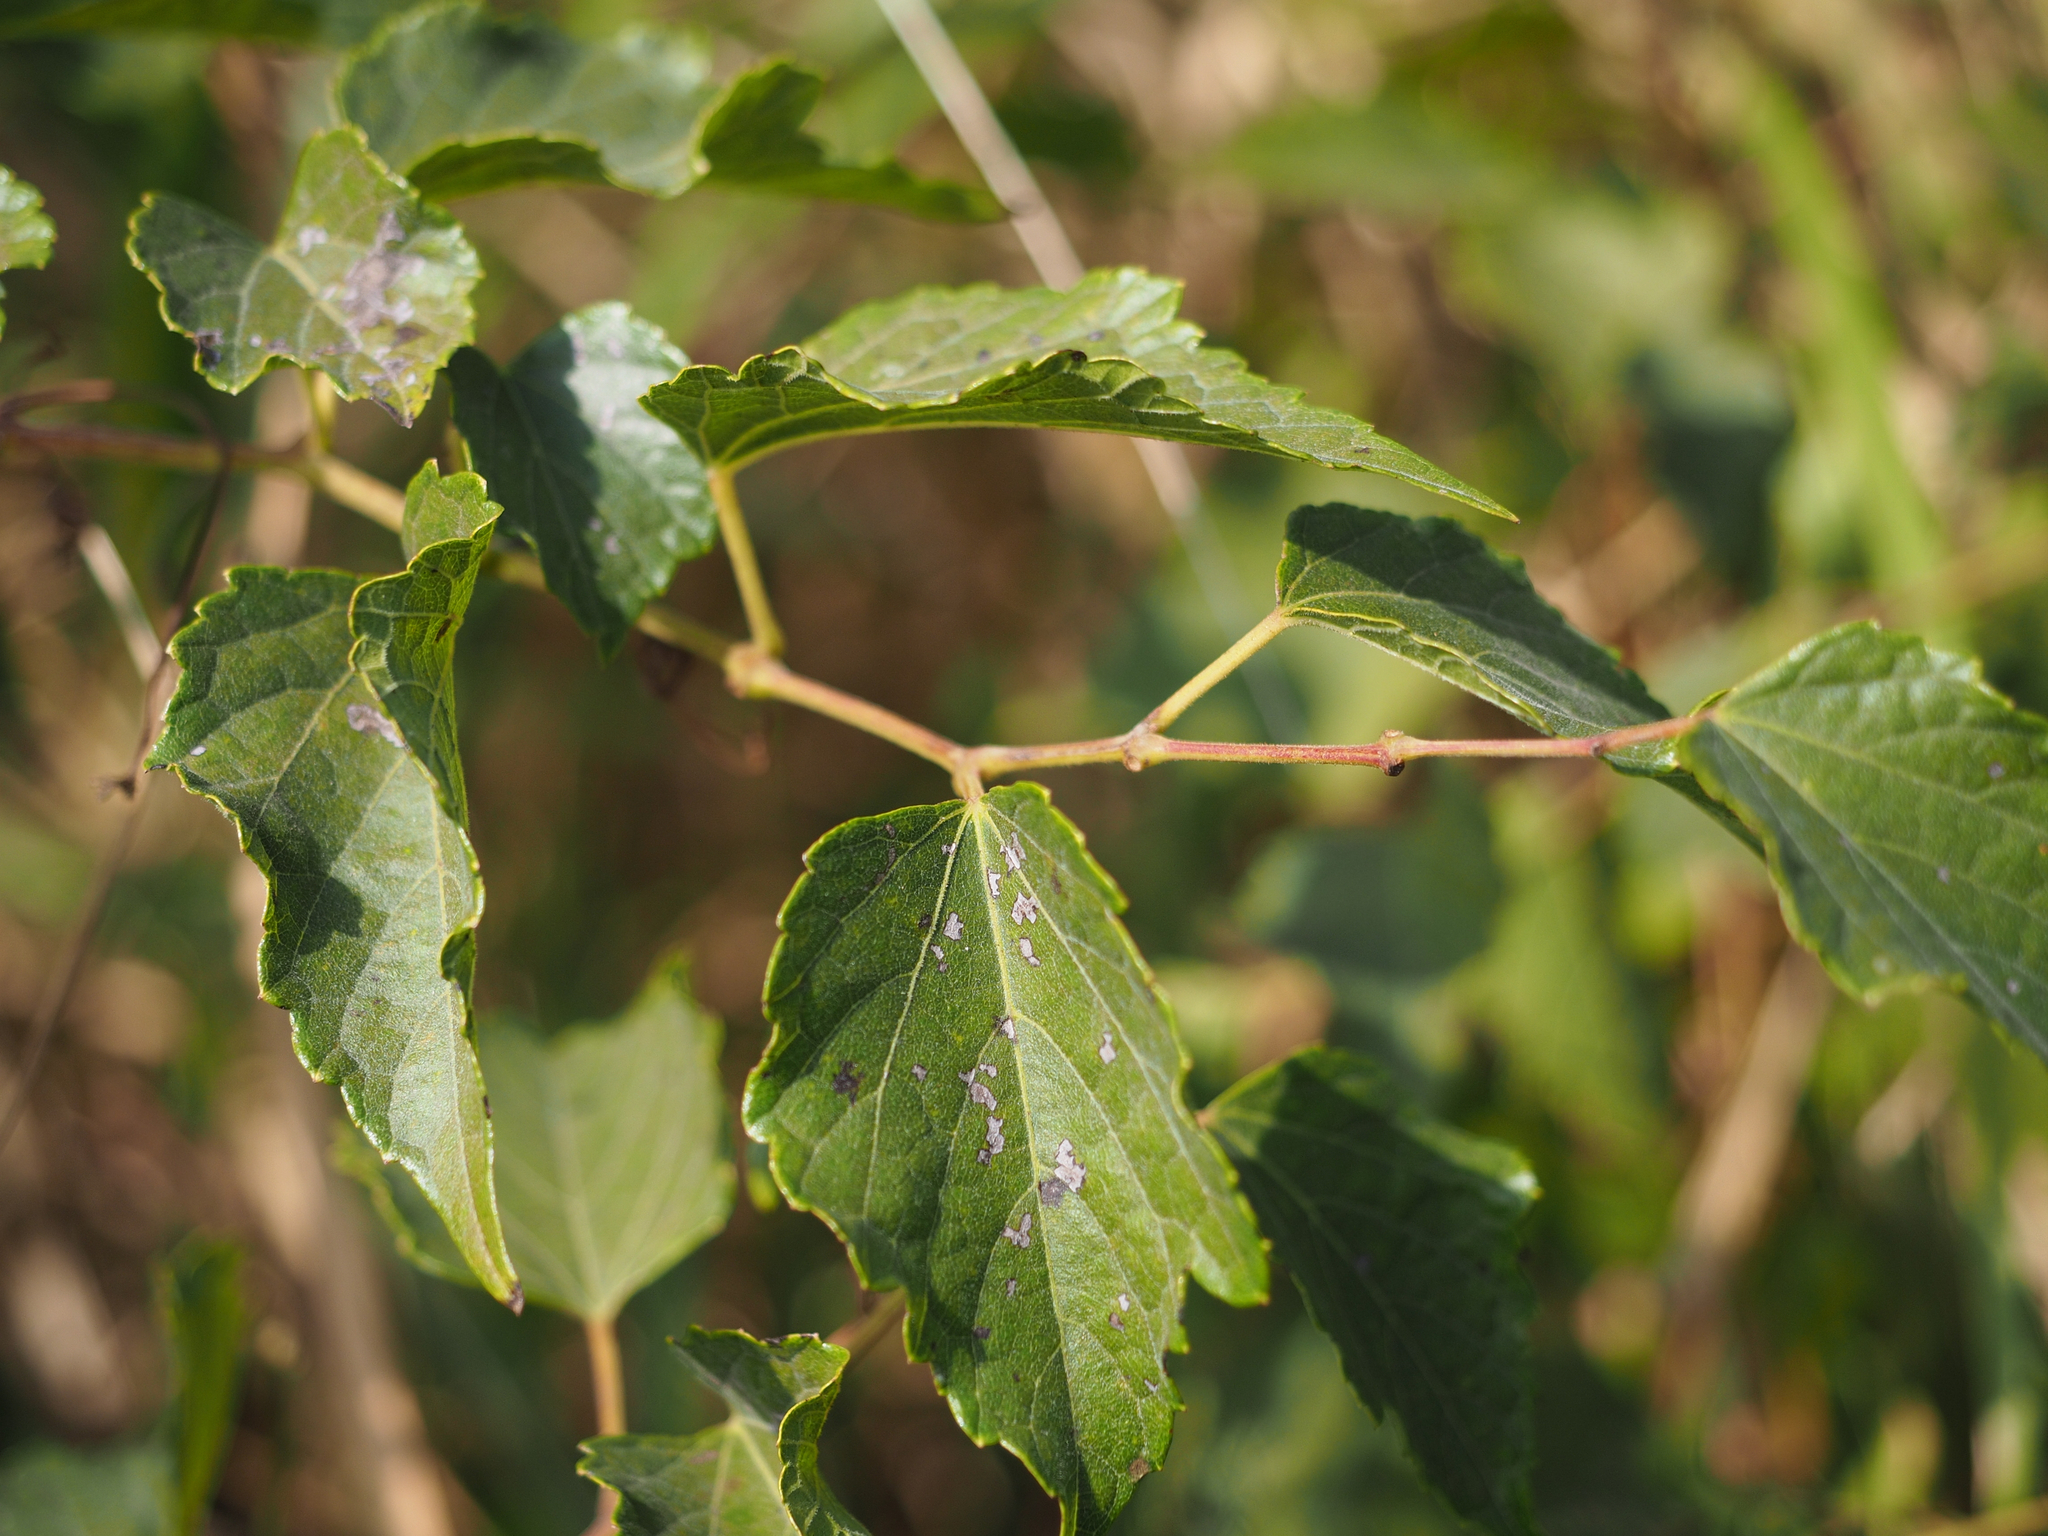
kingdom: Plantae
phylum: Tracheophyta
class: Magnoliopsida
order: Vitales
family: Vitaceae
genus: Ampelopsis
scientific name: Ampelopsis glandulosa
